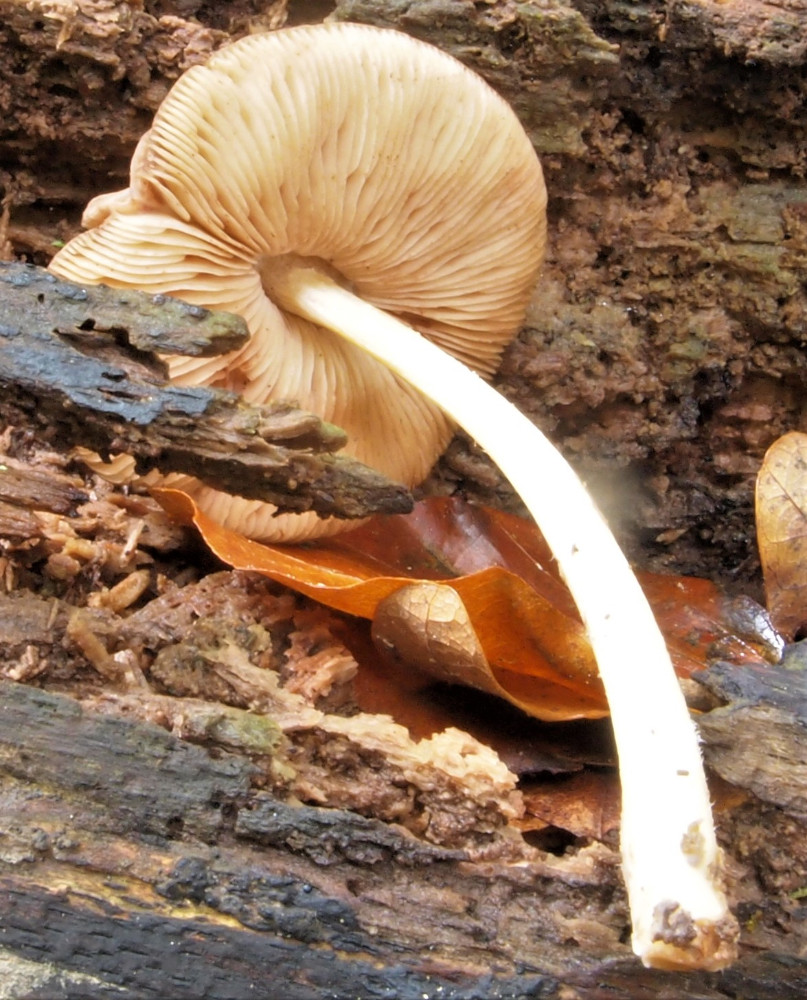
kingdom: Fungi
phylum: Basidiomycota
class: Agaricomycetes
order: Agaricales
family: Pluteaceae
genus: Pluteus
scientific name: Pluteus phlebophorus
